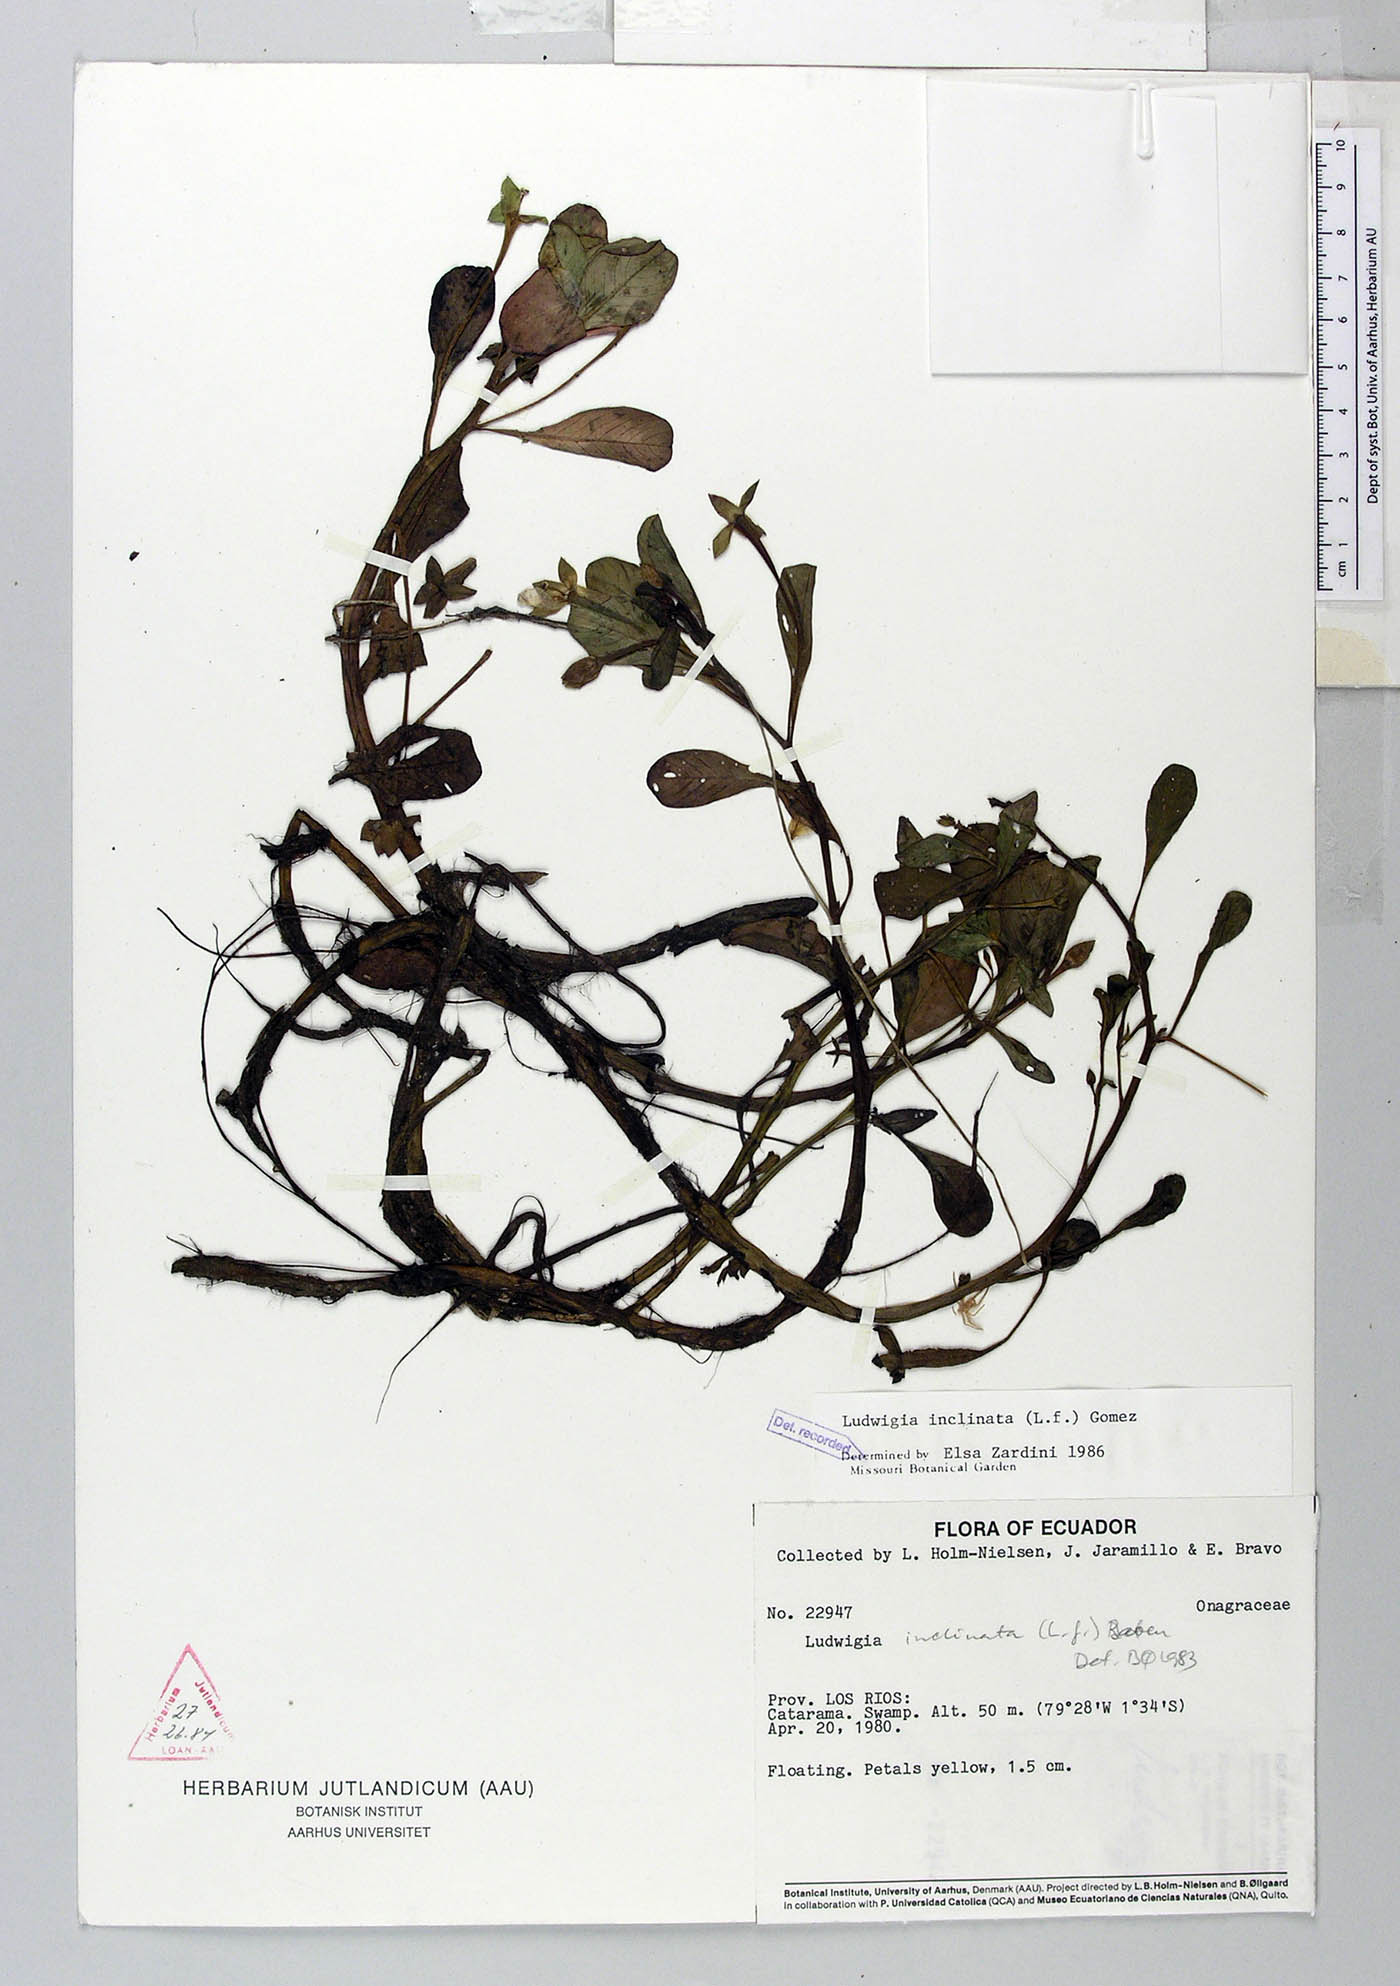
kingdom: Plantae
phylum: Tracheophyta
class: Magnoliopsida
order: Myrtales
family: Onagraceae
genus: Ludwigia
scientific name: Ludwigia inclinata
